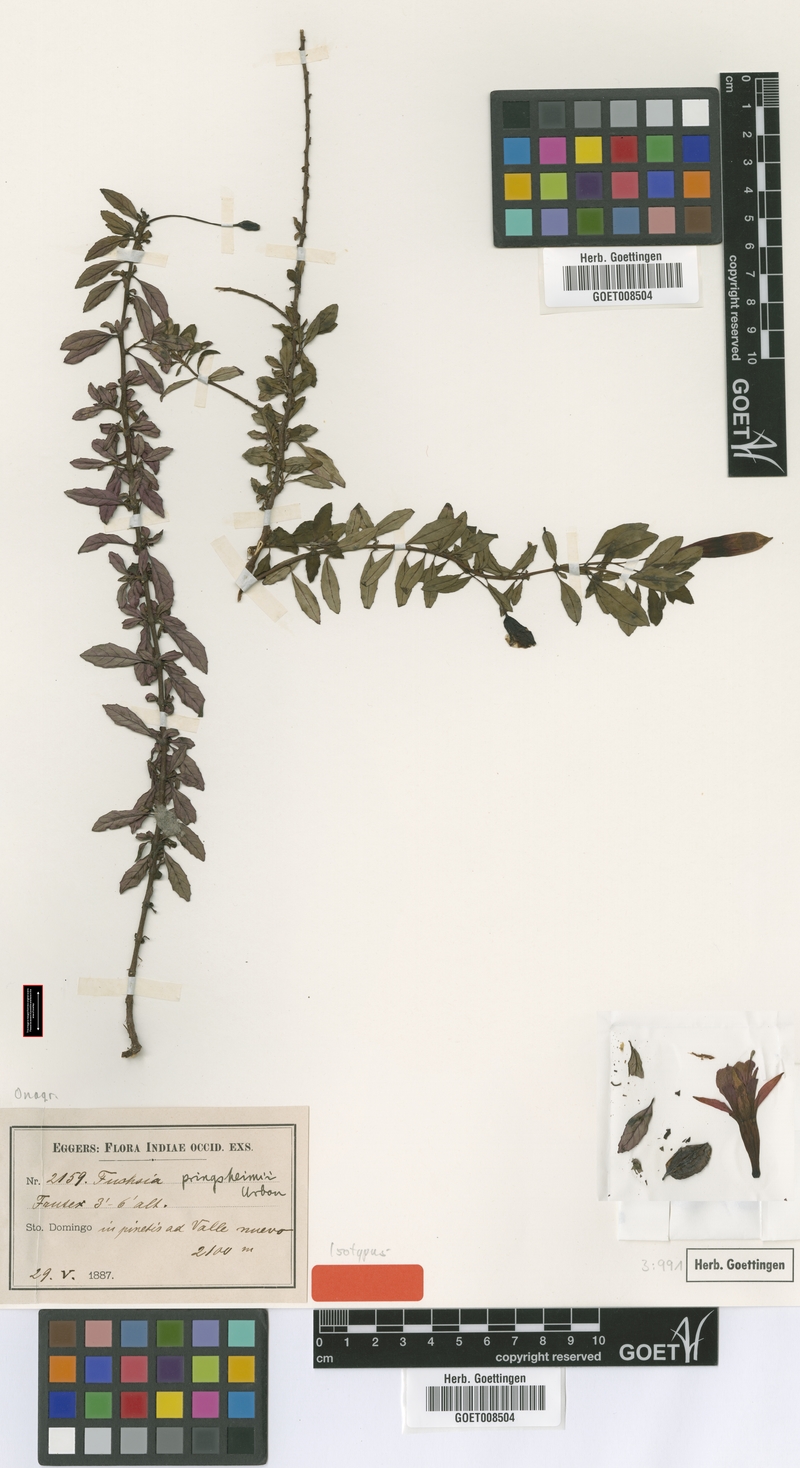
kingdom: Plantae
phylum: Tracheophyta
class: Magnoliopsida
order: Myrtales
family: Onagraceae
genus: Fuchsia
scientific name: Fuchsia pringsheimii
